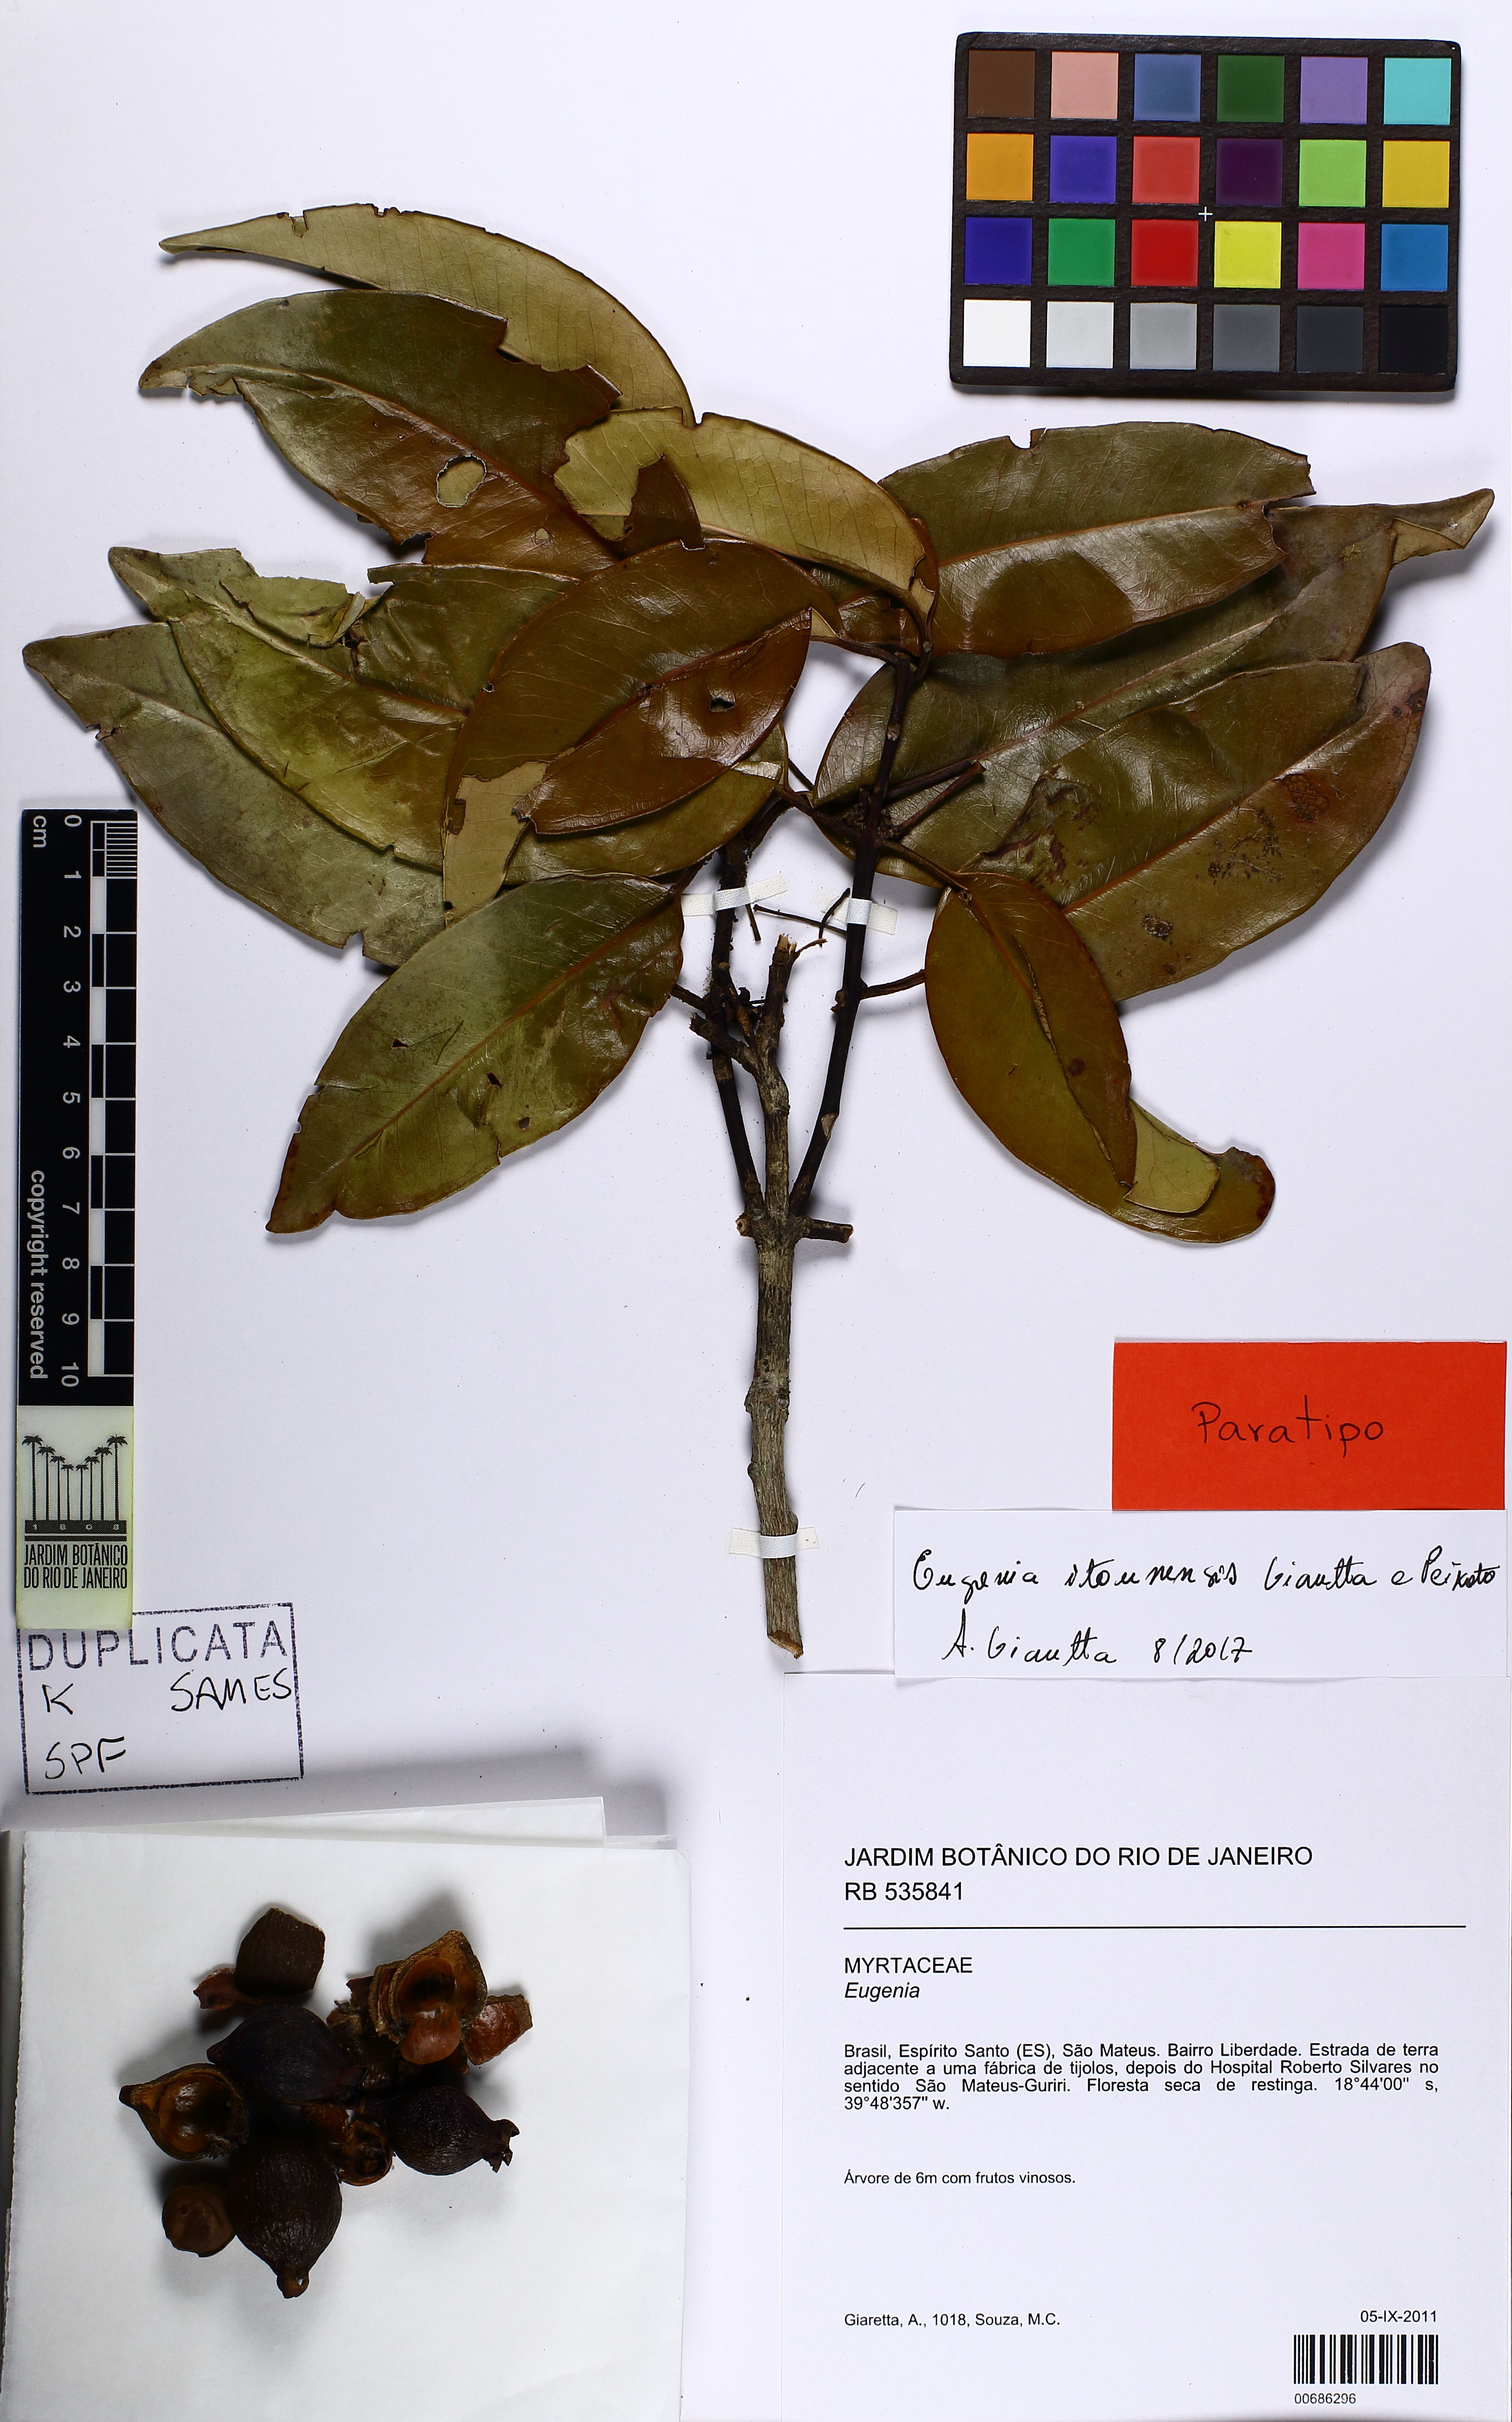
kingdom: Plantae
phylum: Tracheophyta
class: Magnoliopsida
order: Myrtales
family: Myrtaceae
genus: Eugenia
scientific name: Eugenia itaunensis
